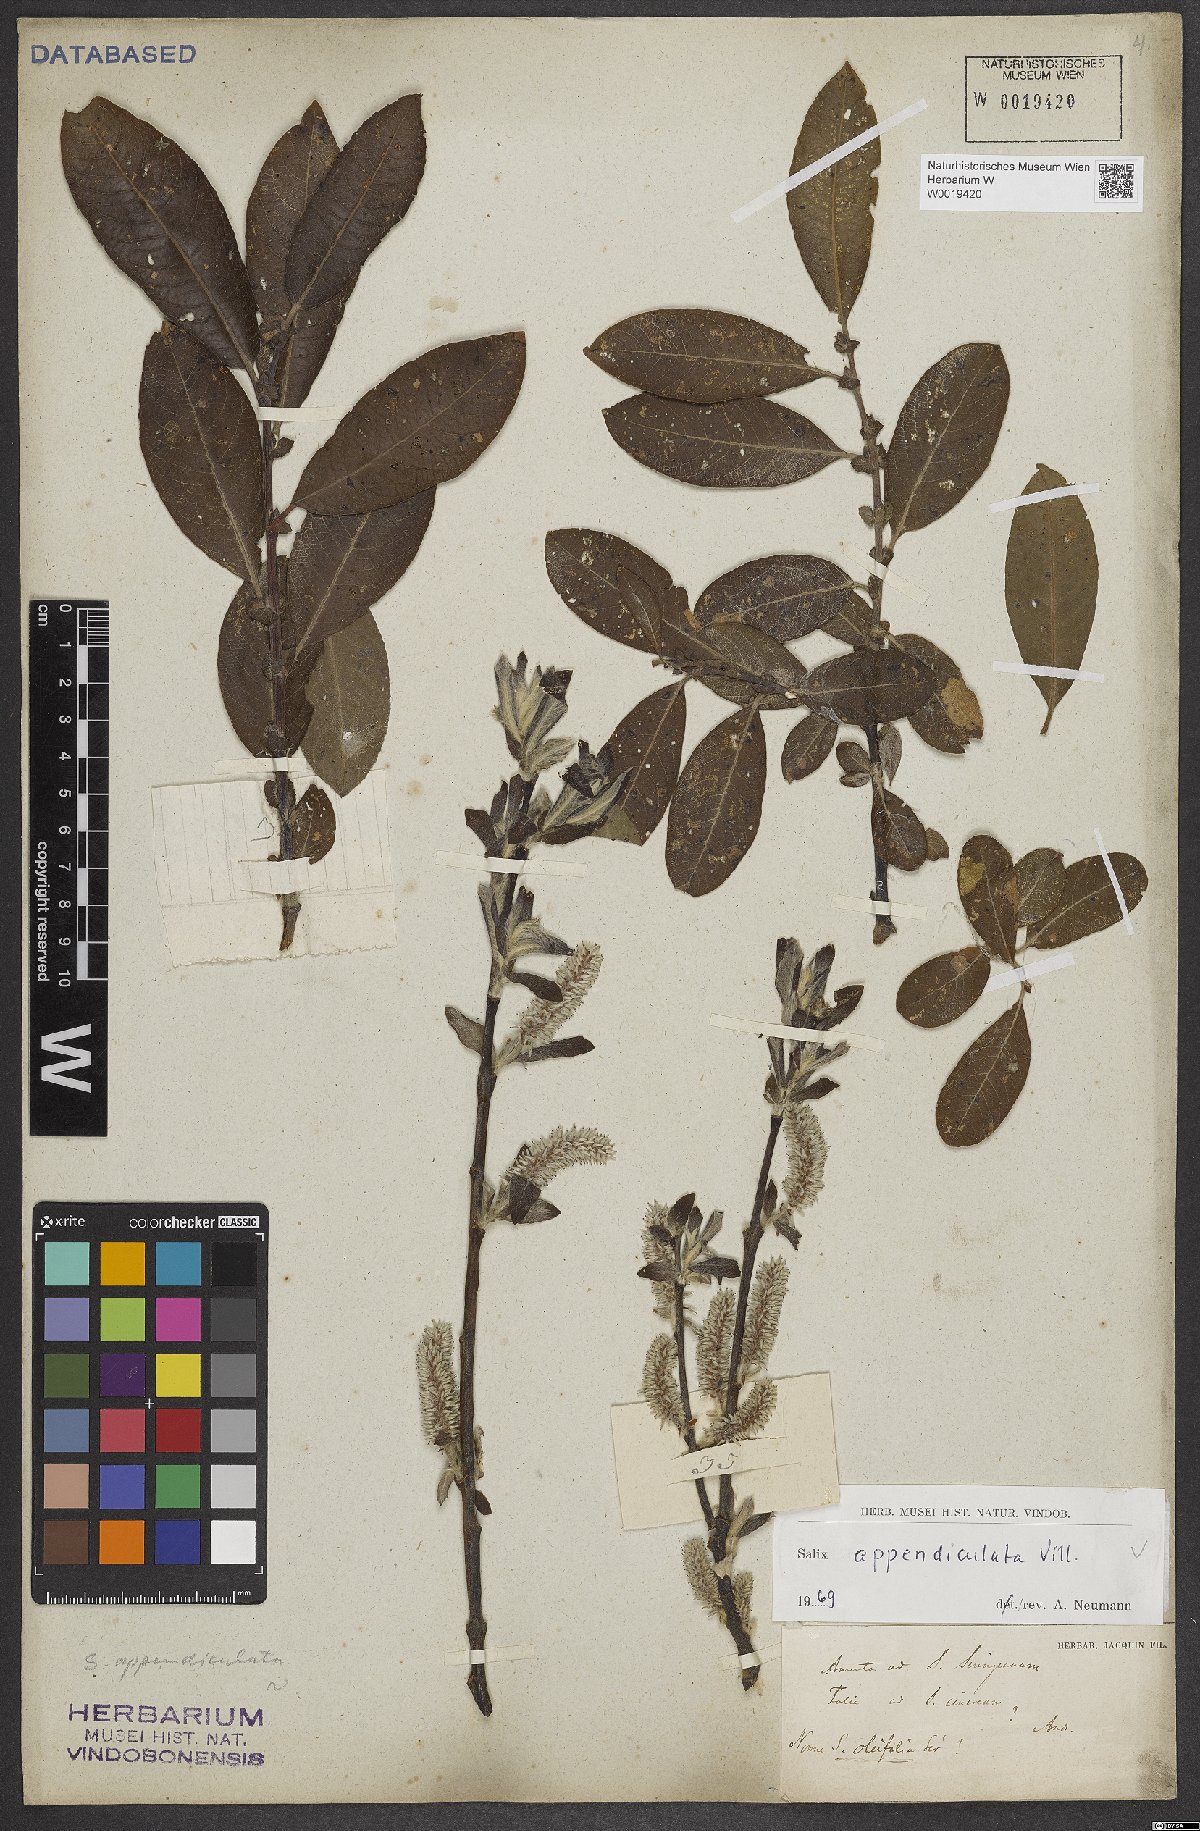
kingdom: Plantae
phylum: Tracheophyta
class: Magnoliopsida
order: Malpighiales
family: Salicaceae
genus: Salix
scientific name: Salix appendiculata
